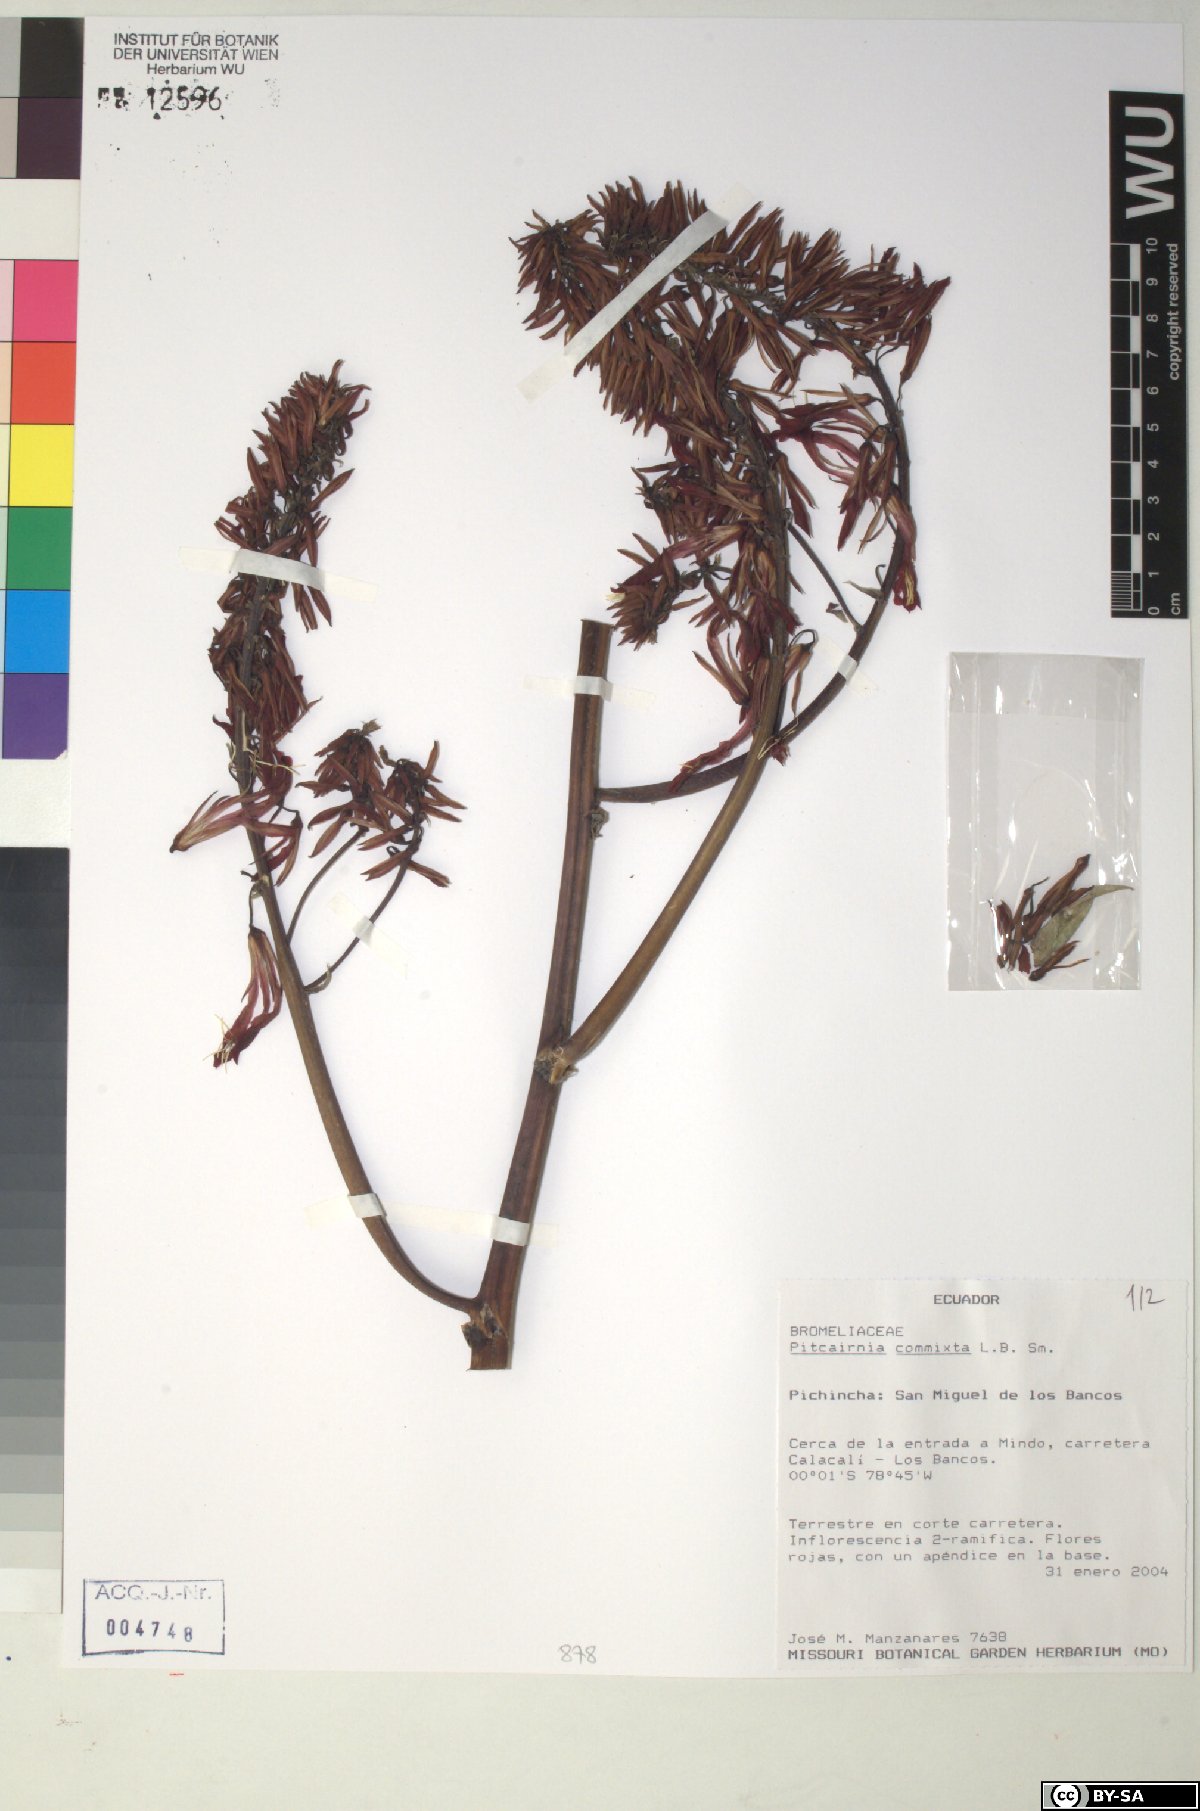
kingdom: Plantae
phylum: Tracheophyta
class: Liliopsida
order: Poales
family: Bromeliaceae
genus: Pitcairnia
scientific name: Pitcairnia commixta
